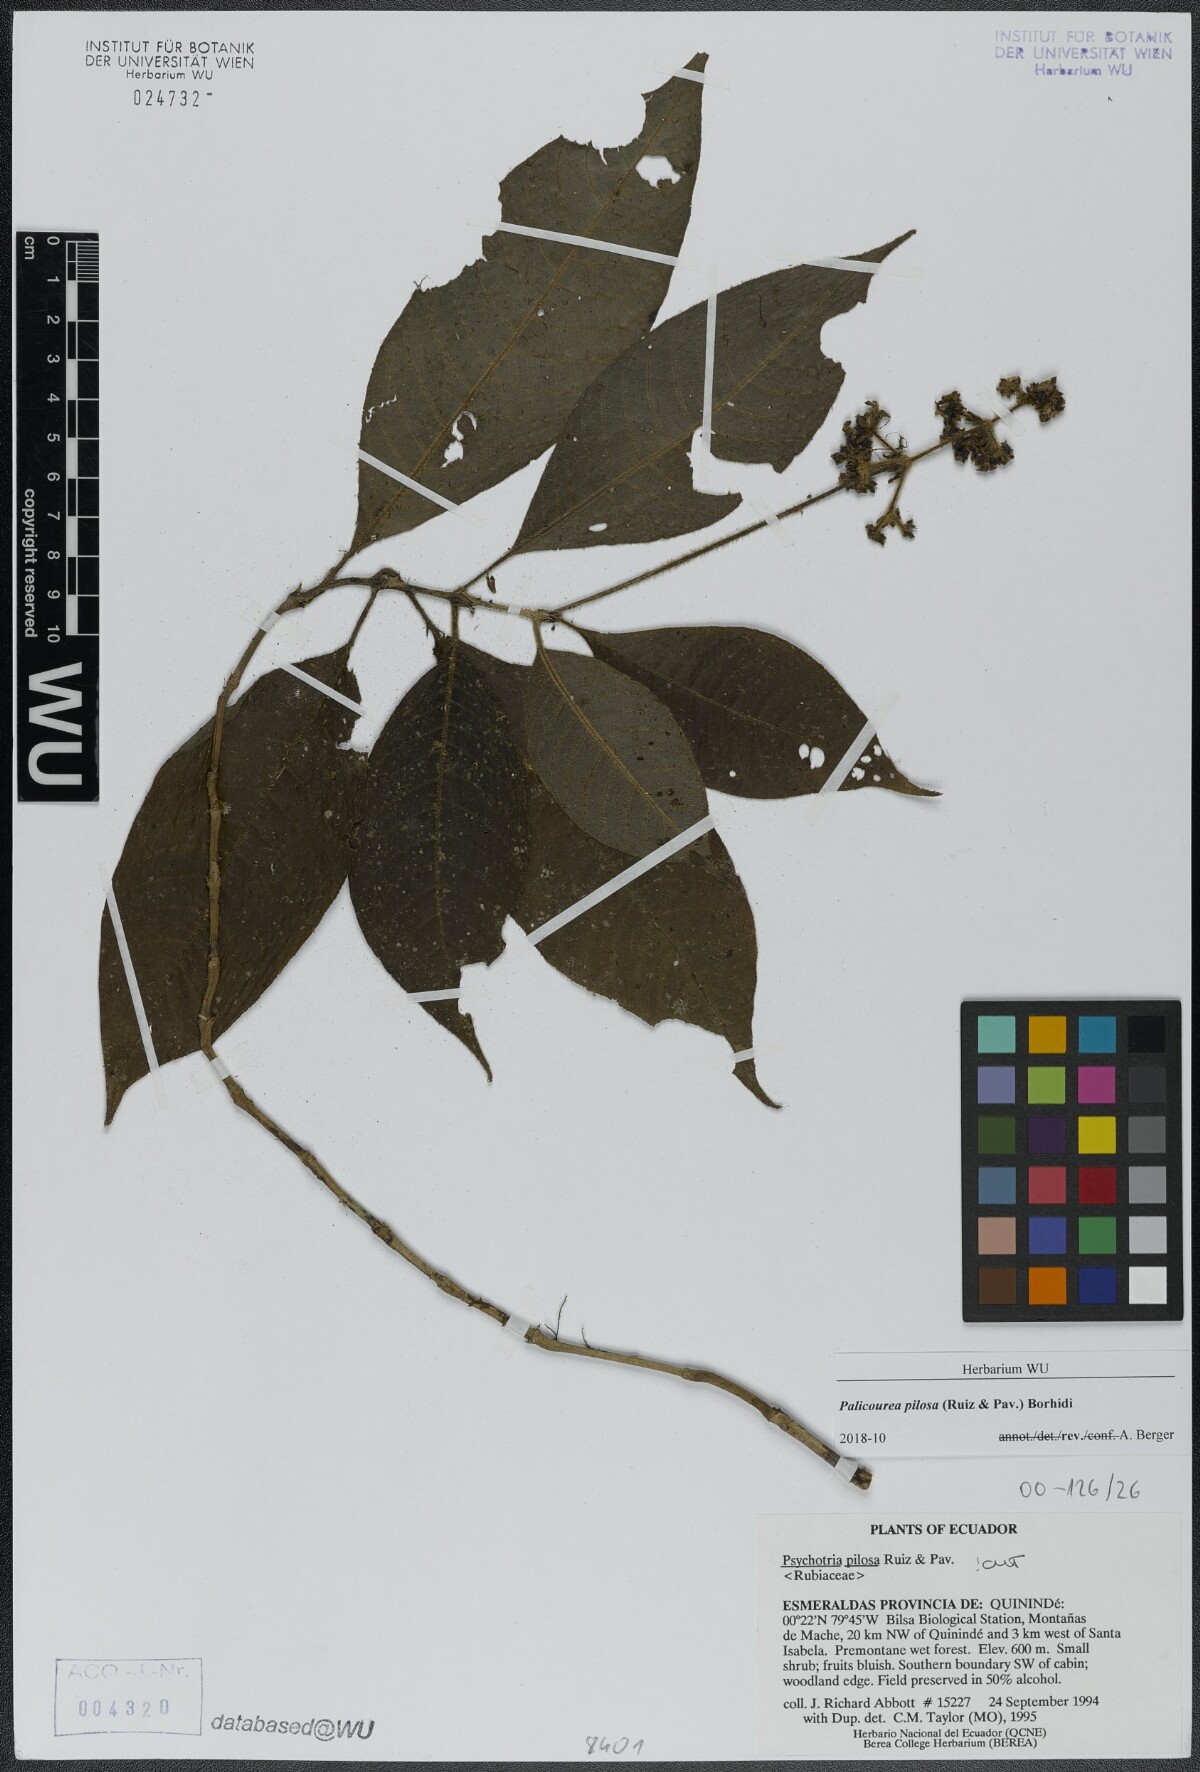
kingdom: Plantae
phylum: Tracheophyta
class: Magnoliopsida
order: Gentianales
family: Rubiaceae
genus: Palicourea
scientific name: Palicourea pilosa
